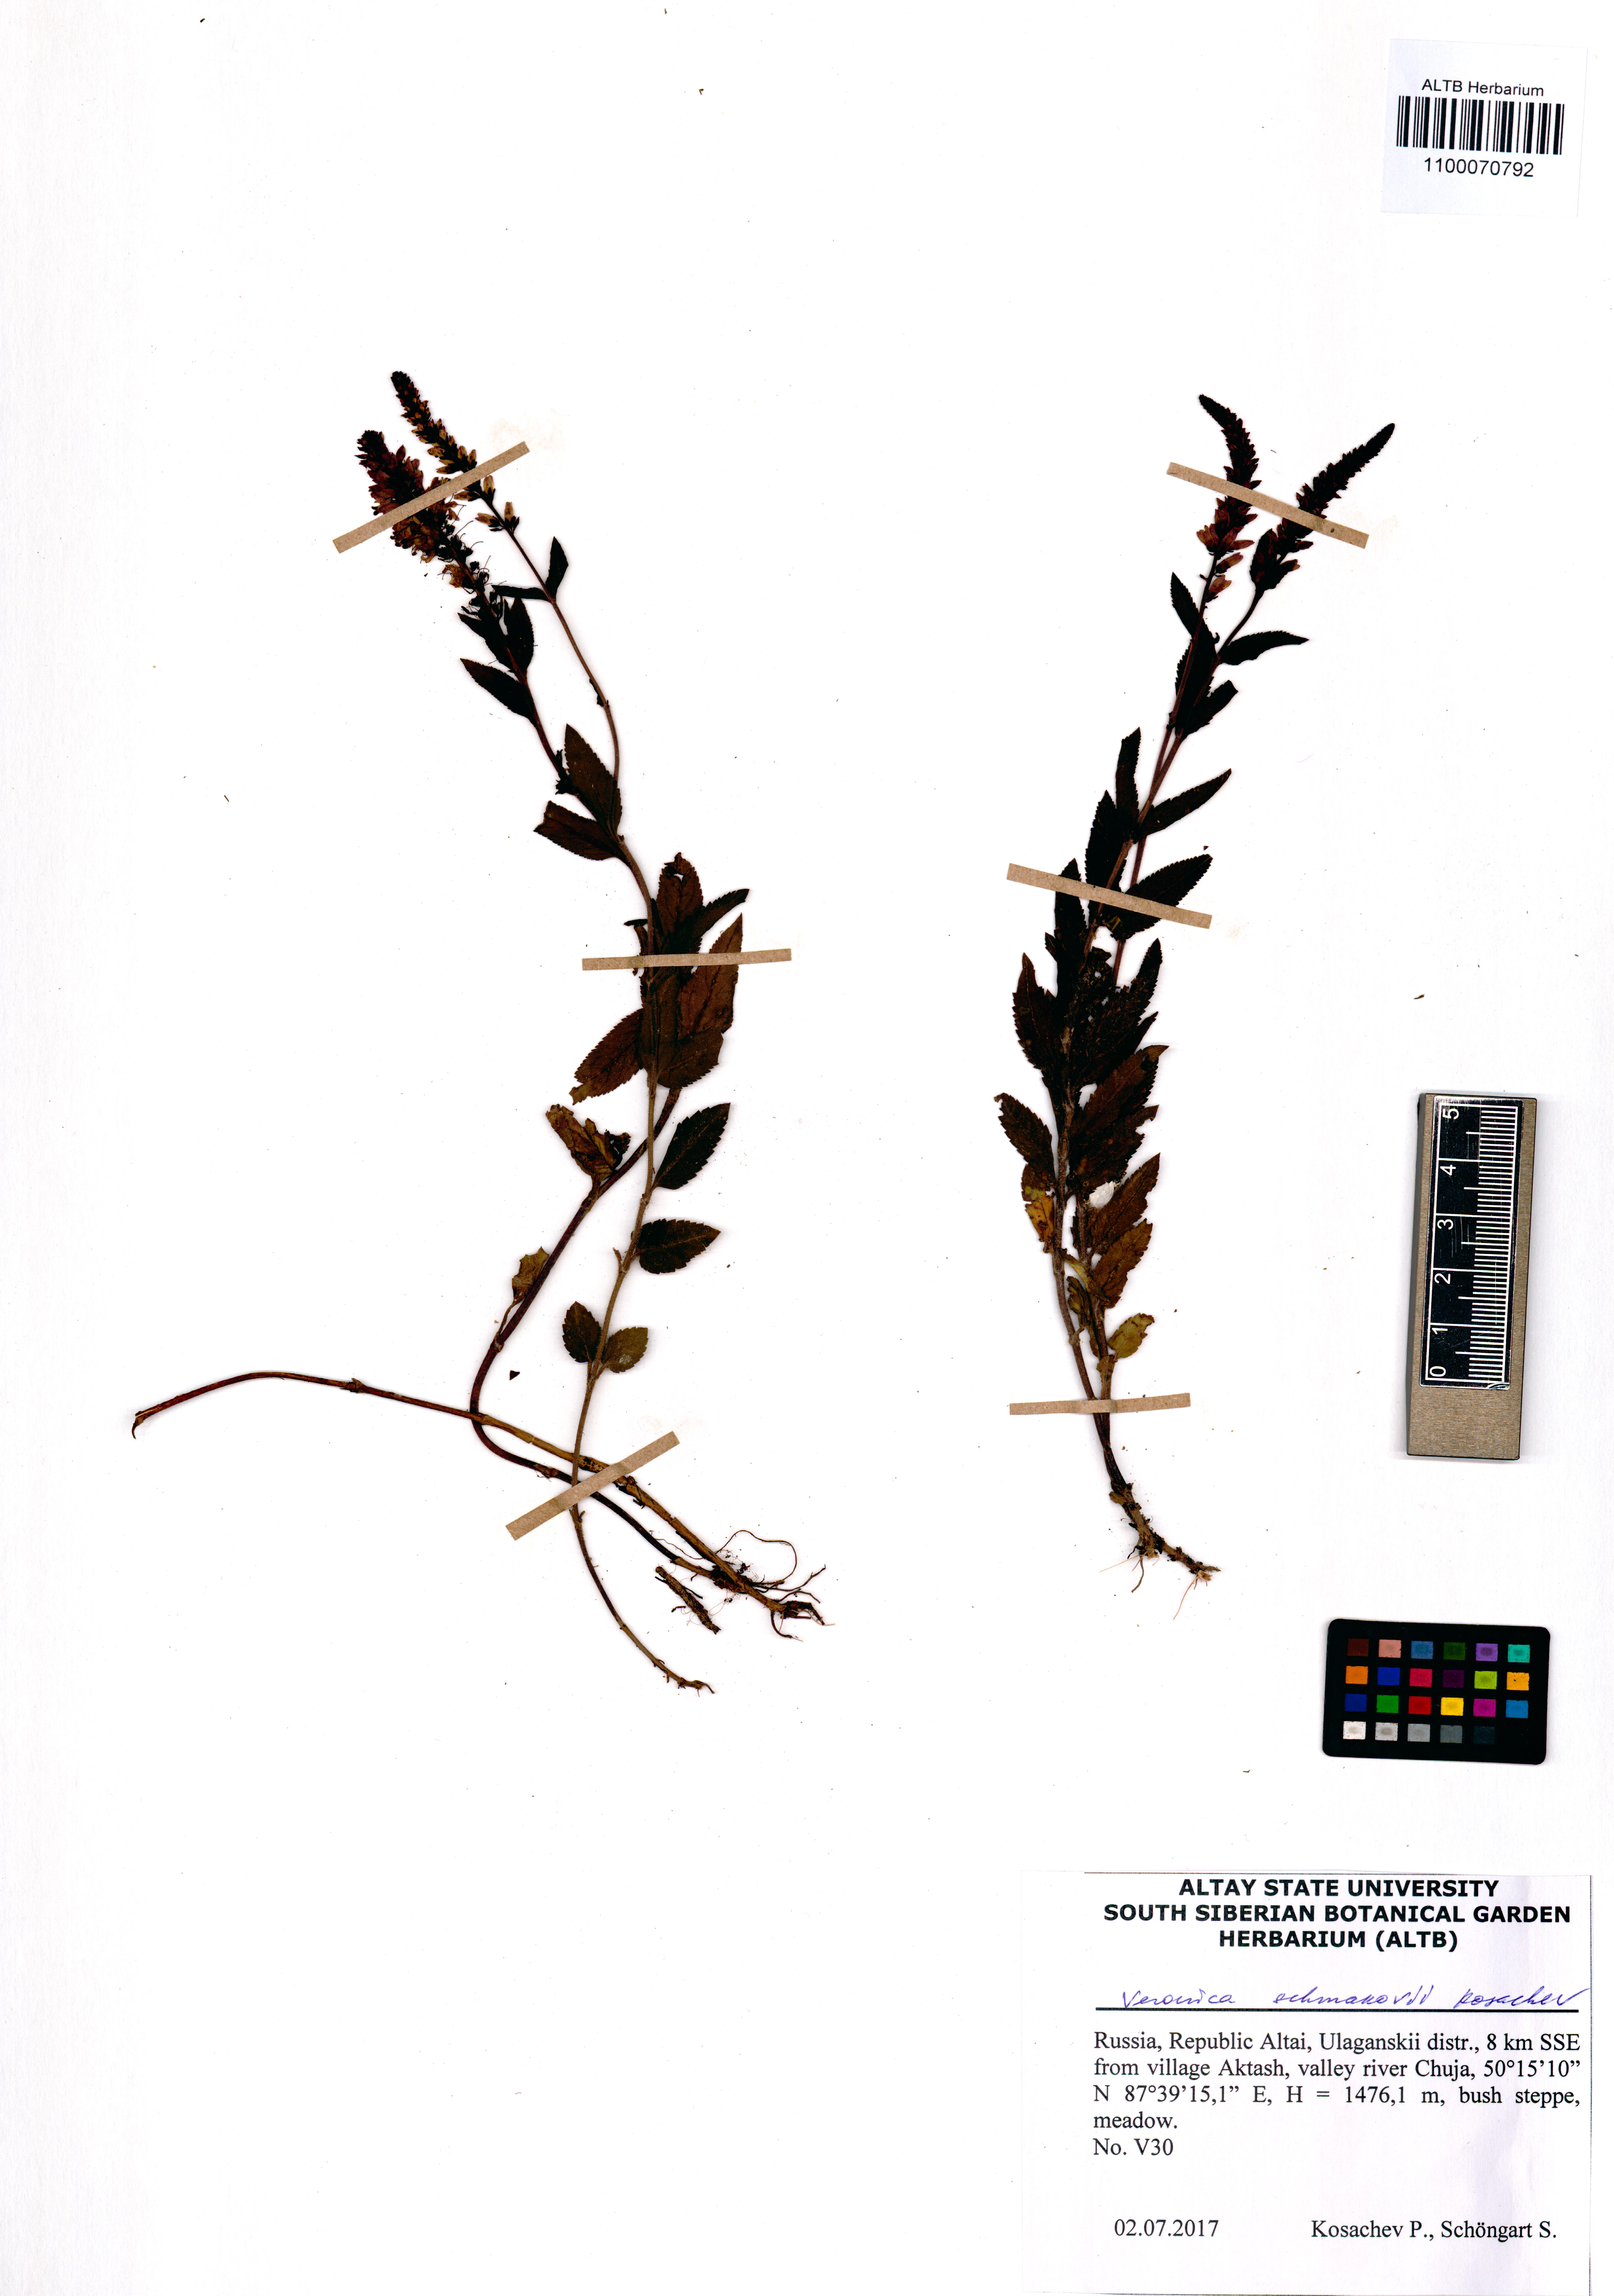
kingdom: Plantae
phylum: Tracheophyta
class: Magnoliopsida
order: Lamiales
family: Plantaginaceae
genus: Veronica
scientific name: Veronica schmakovii
